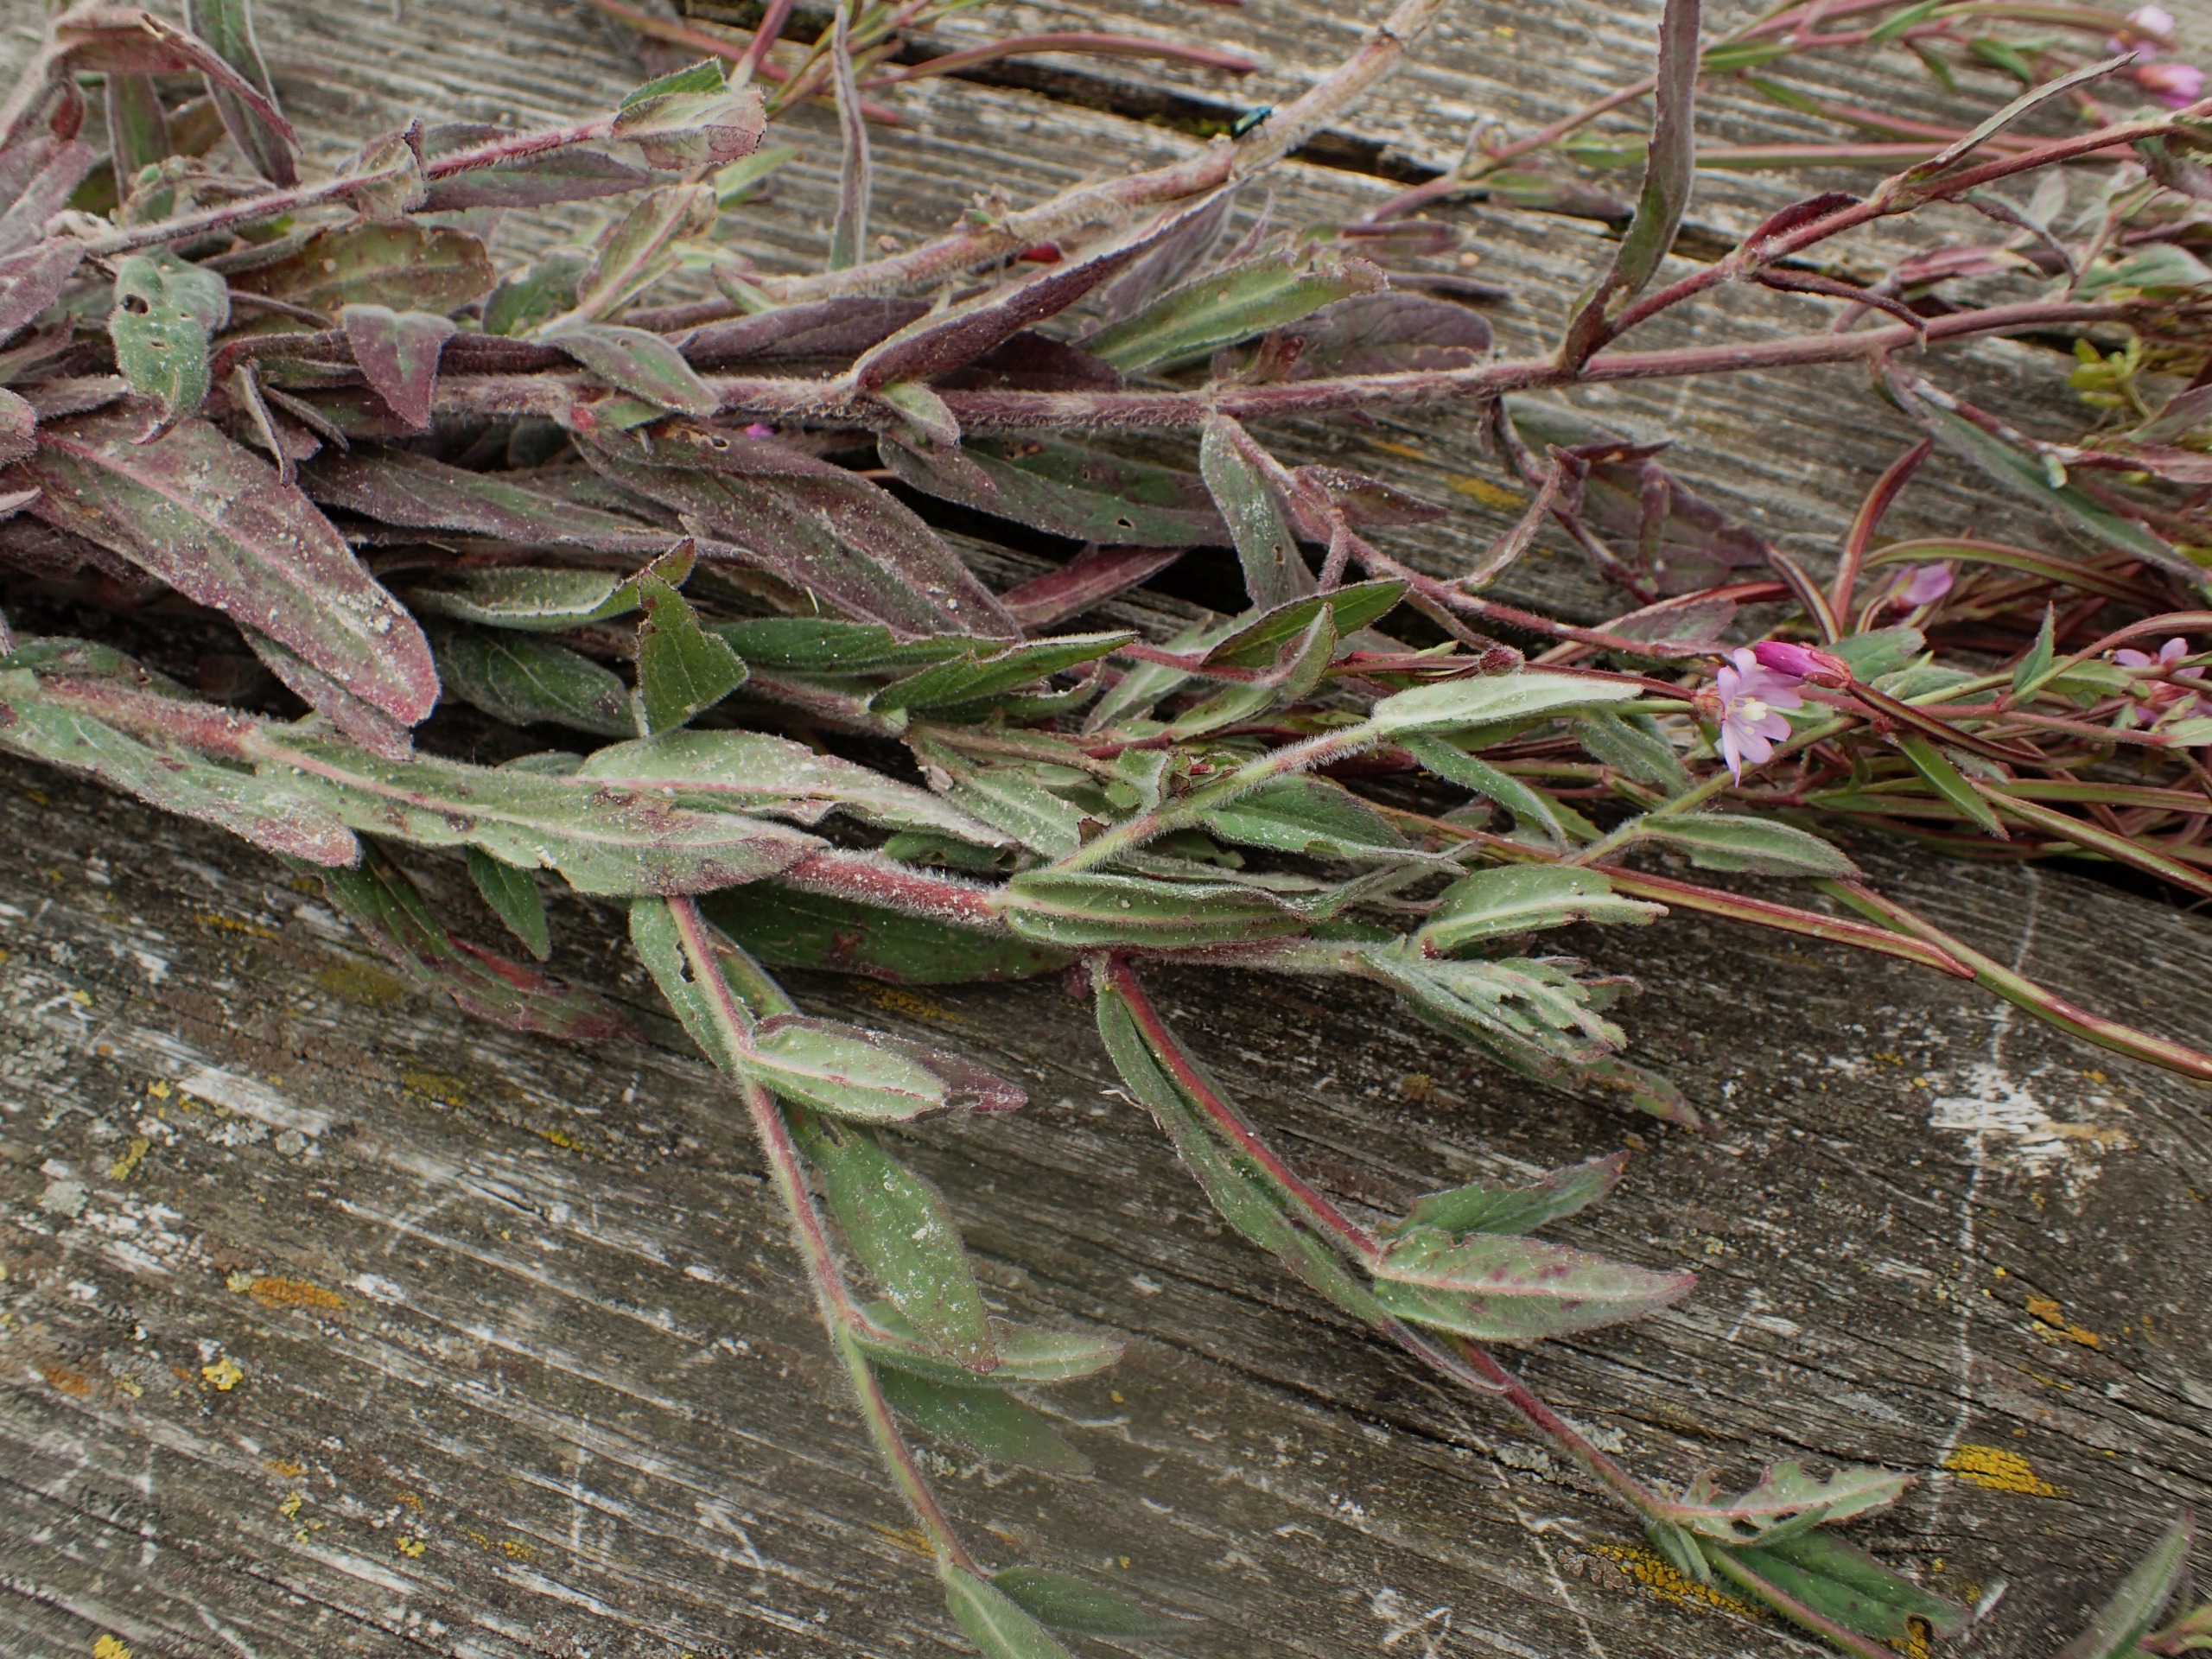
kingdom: Plantae
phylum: Tracheophyta
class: Magnoliopsida
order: Myrtales
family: Onagraceae
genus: Epilobium
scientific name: Epilobium parviflorum
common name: Dunet dueurt
